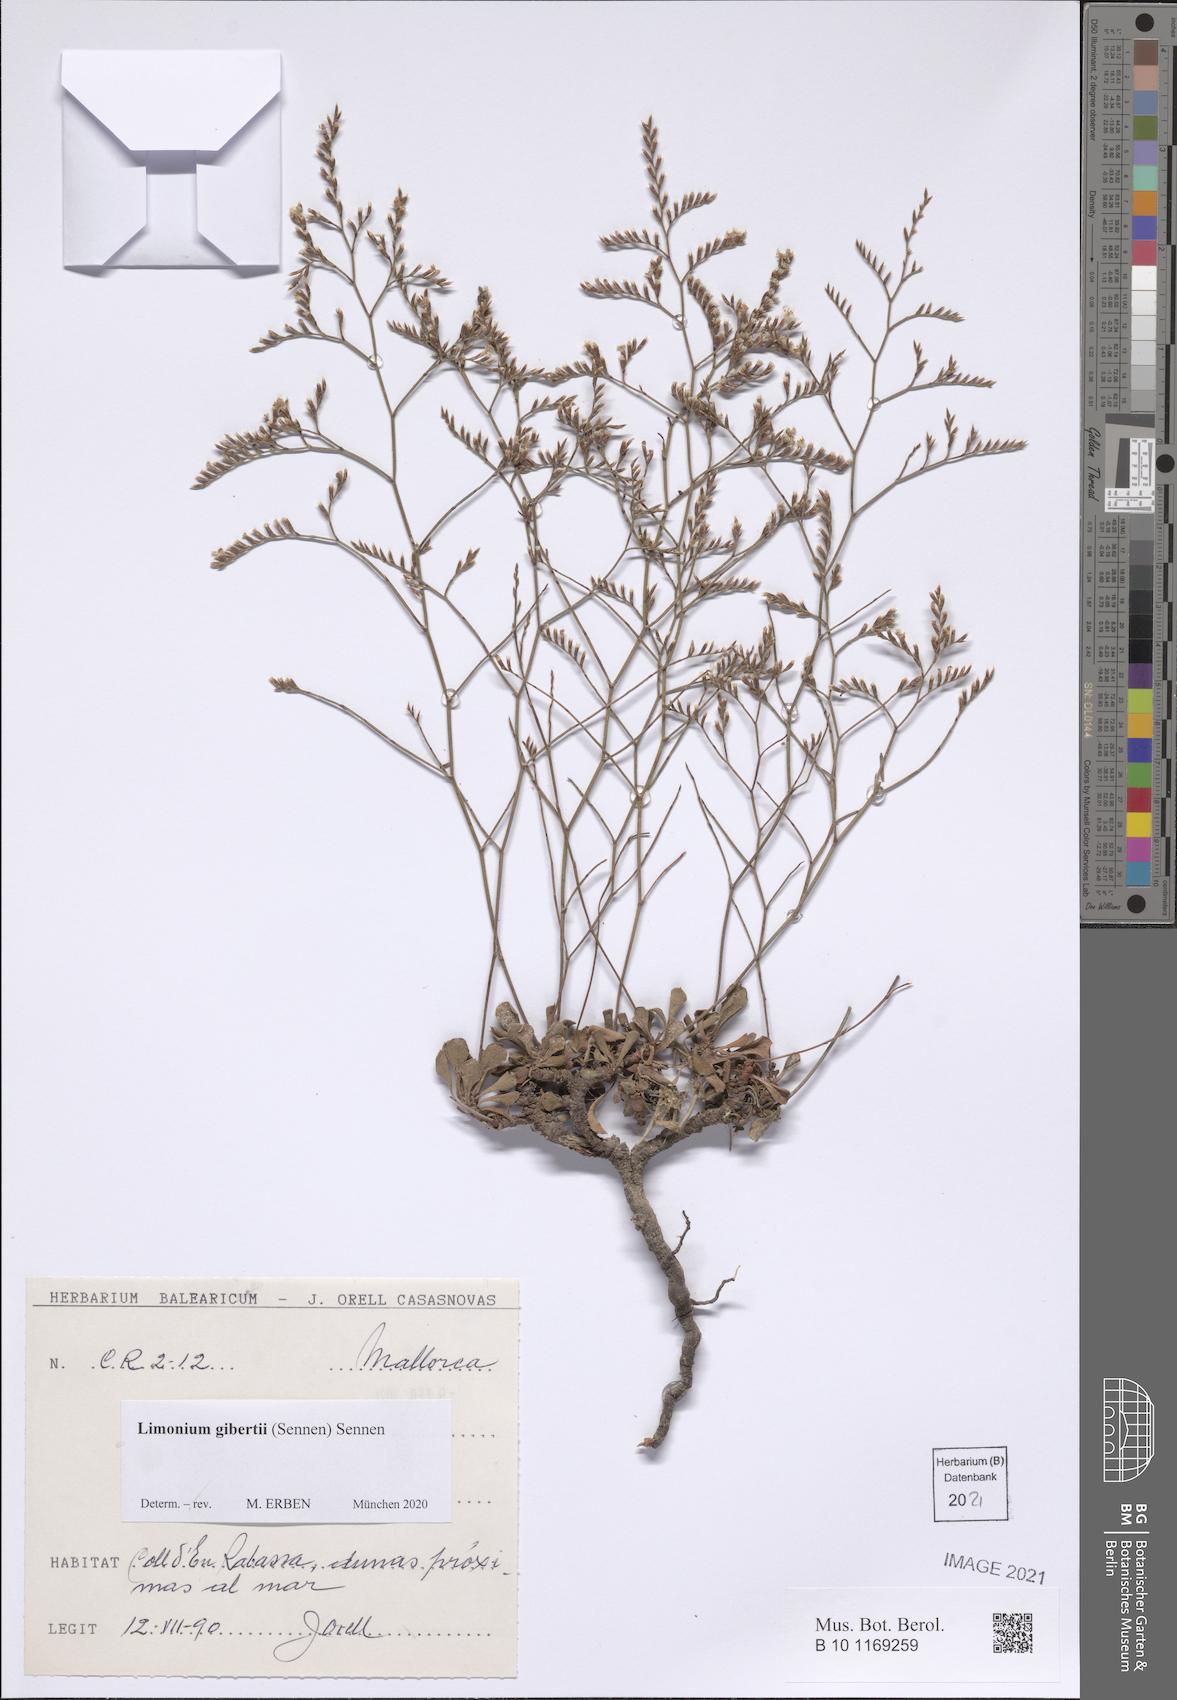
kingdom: Plantae
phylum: Tracheophyta
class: Magnoliopsida
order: Caryophyllales
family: Plumbaginaceae
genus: Limonium
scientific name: Limonium gibertii
